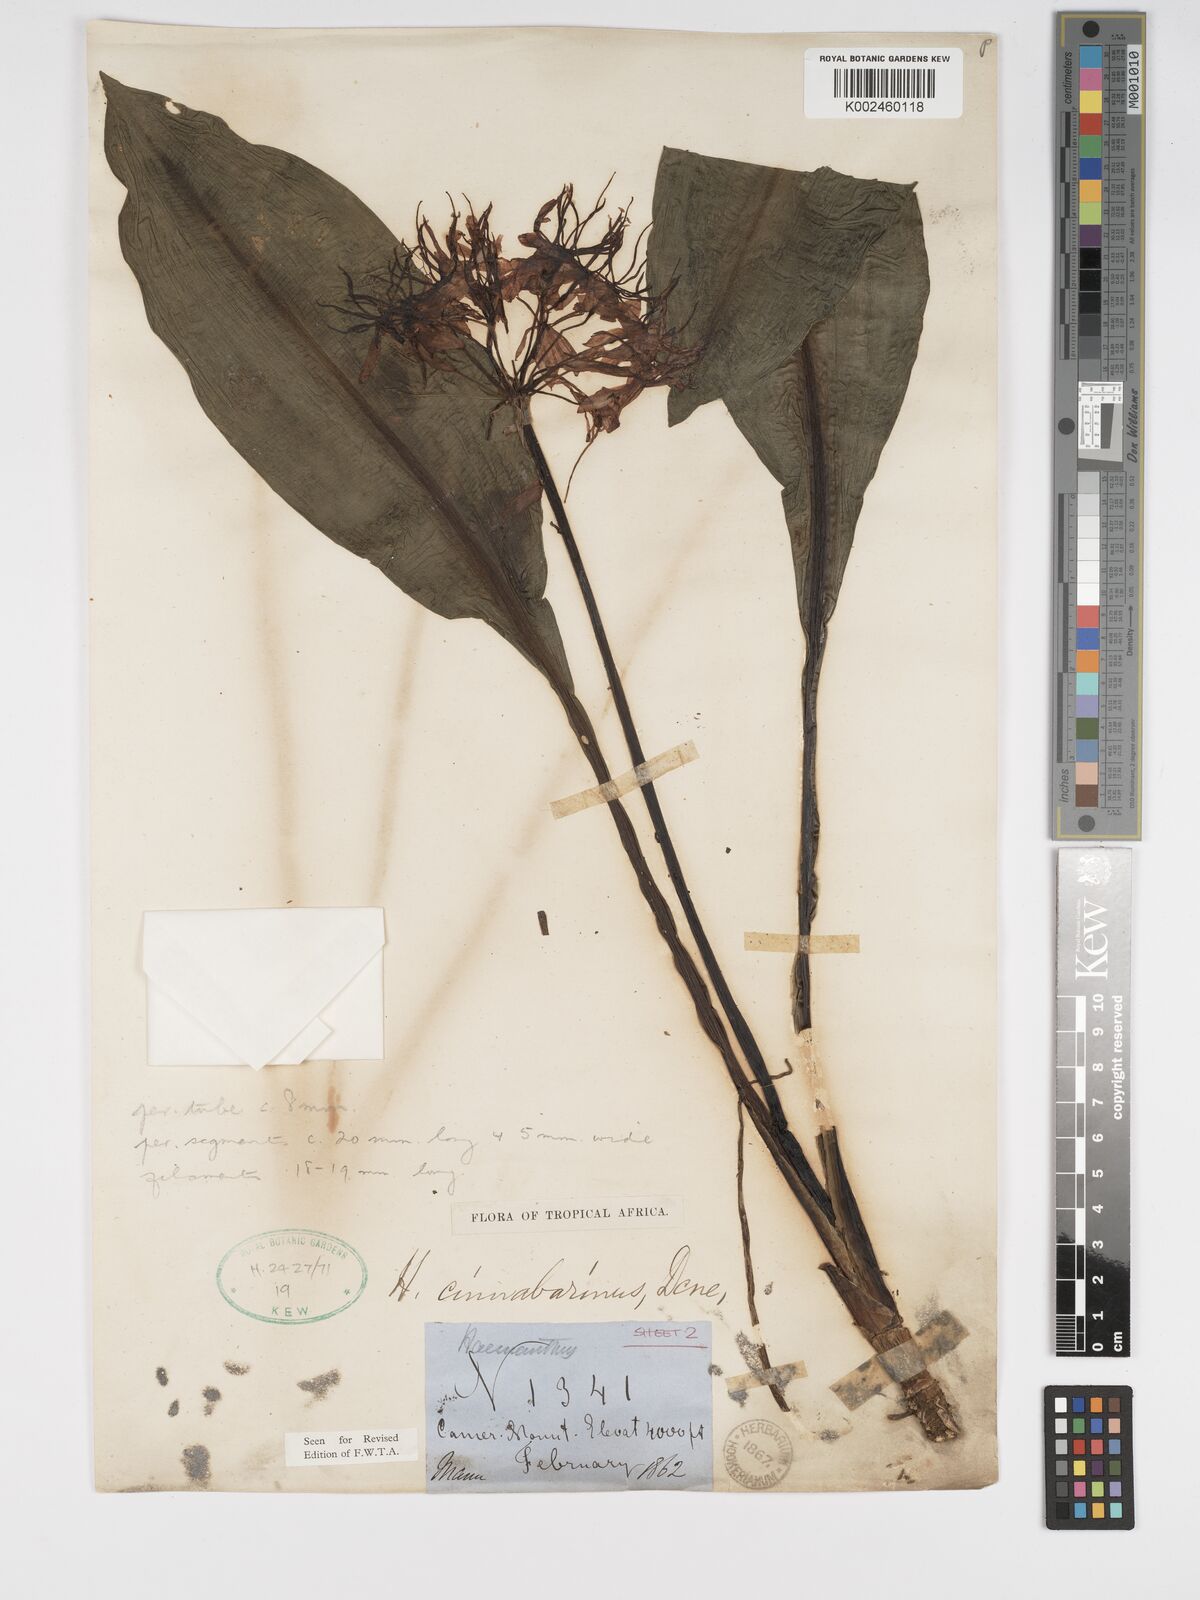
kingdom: Plantae
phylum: Tracheophyta
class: Liliopsida
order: Asparagales
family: Amaryllidaceae
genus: Scadoxus
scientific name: Scadoxus cinnabarinus
